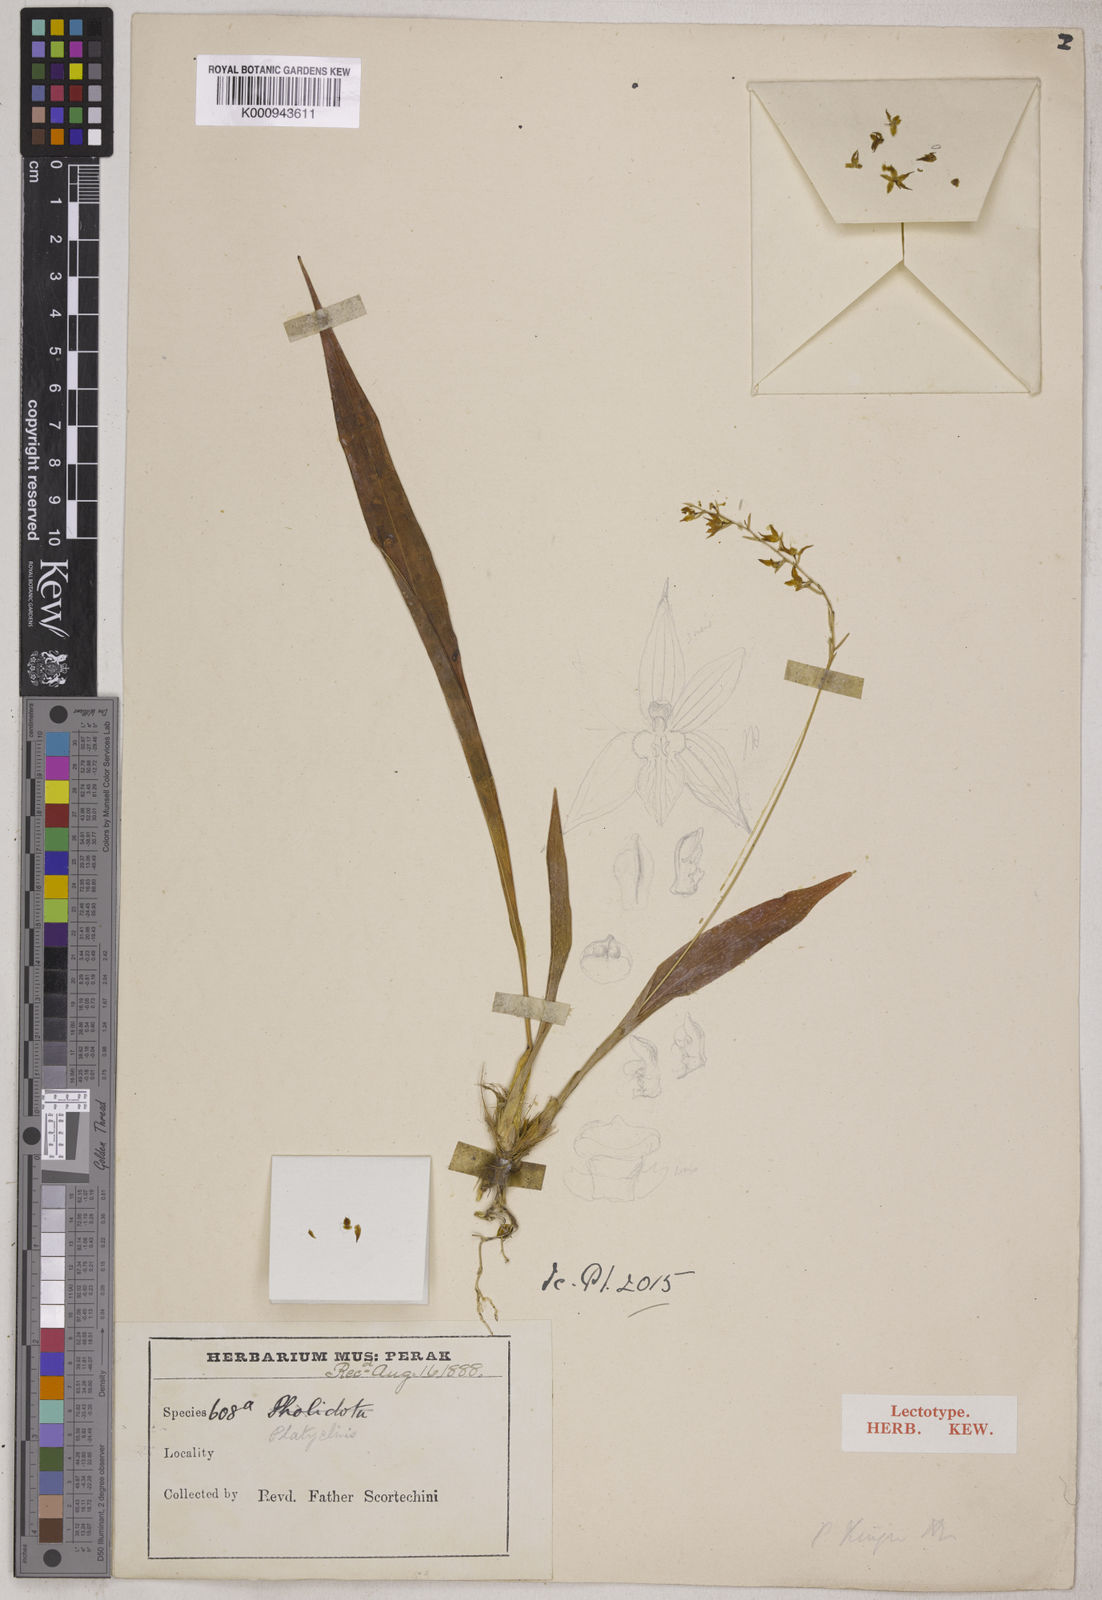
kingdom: Plantae
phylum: Tracheophyta
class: Liliopsida
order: Asparagales
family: Orchidaceae
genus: Coelogyne
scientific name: Coelogyne bigibbosa
